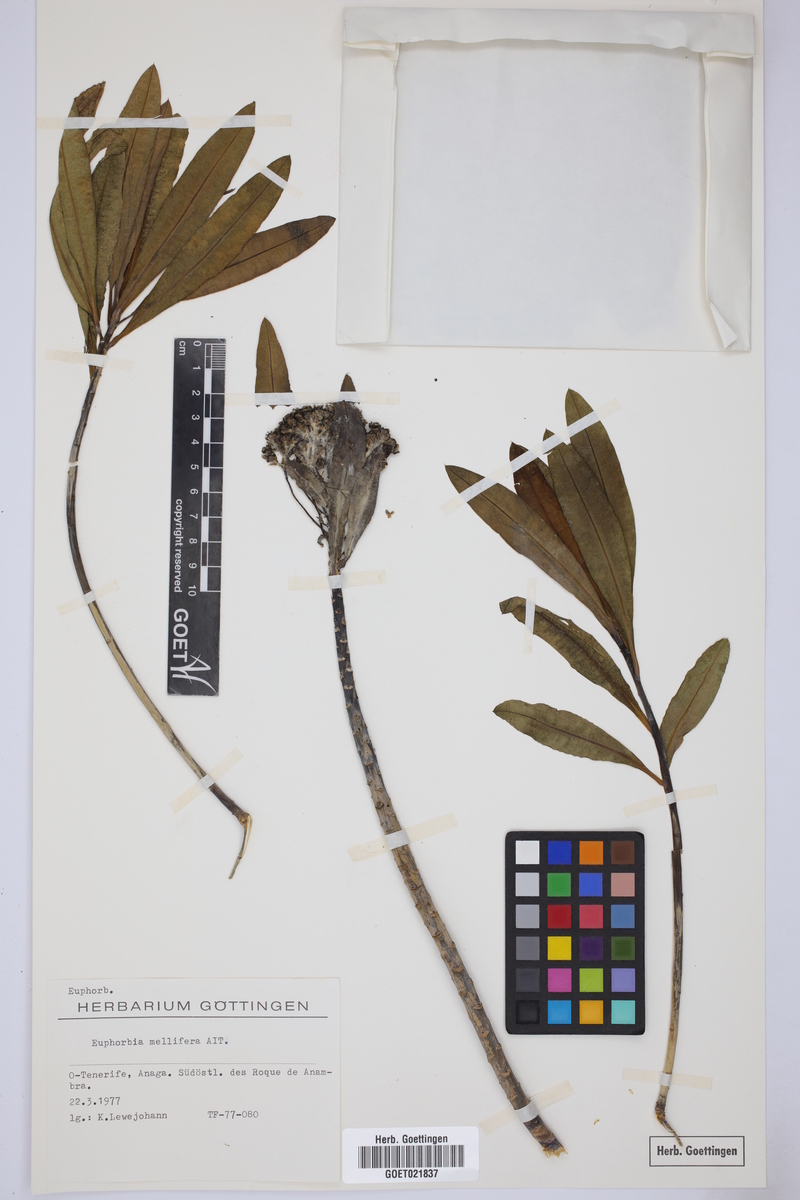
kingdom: Plantae
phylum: Tracheophyta
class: Magnoliopsida
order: Malpighiales
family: Euphorbiaceae
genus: Euphorbia
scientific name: Euphorbia mellifera
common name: Canary spurge
